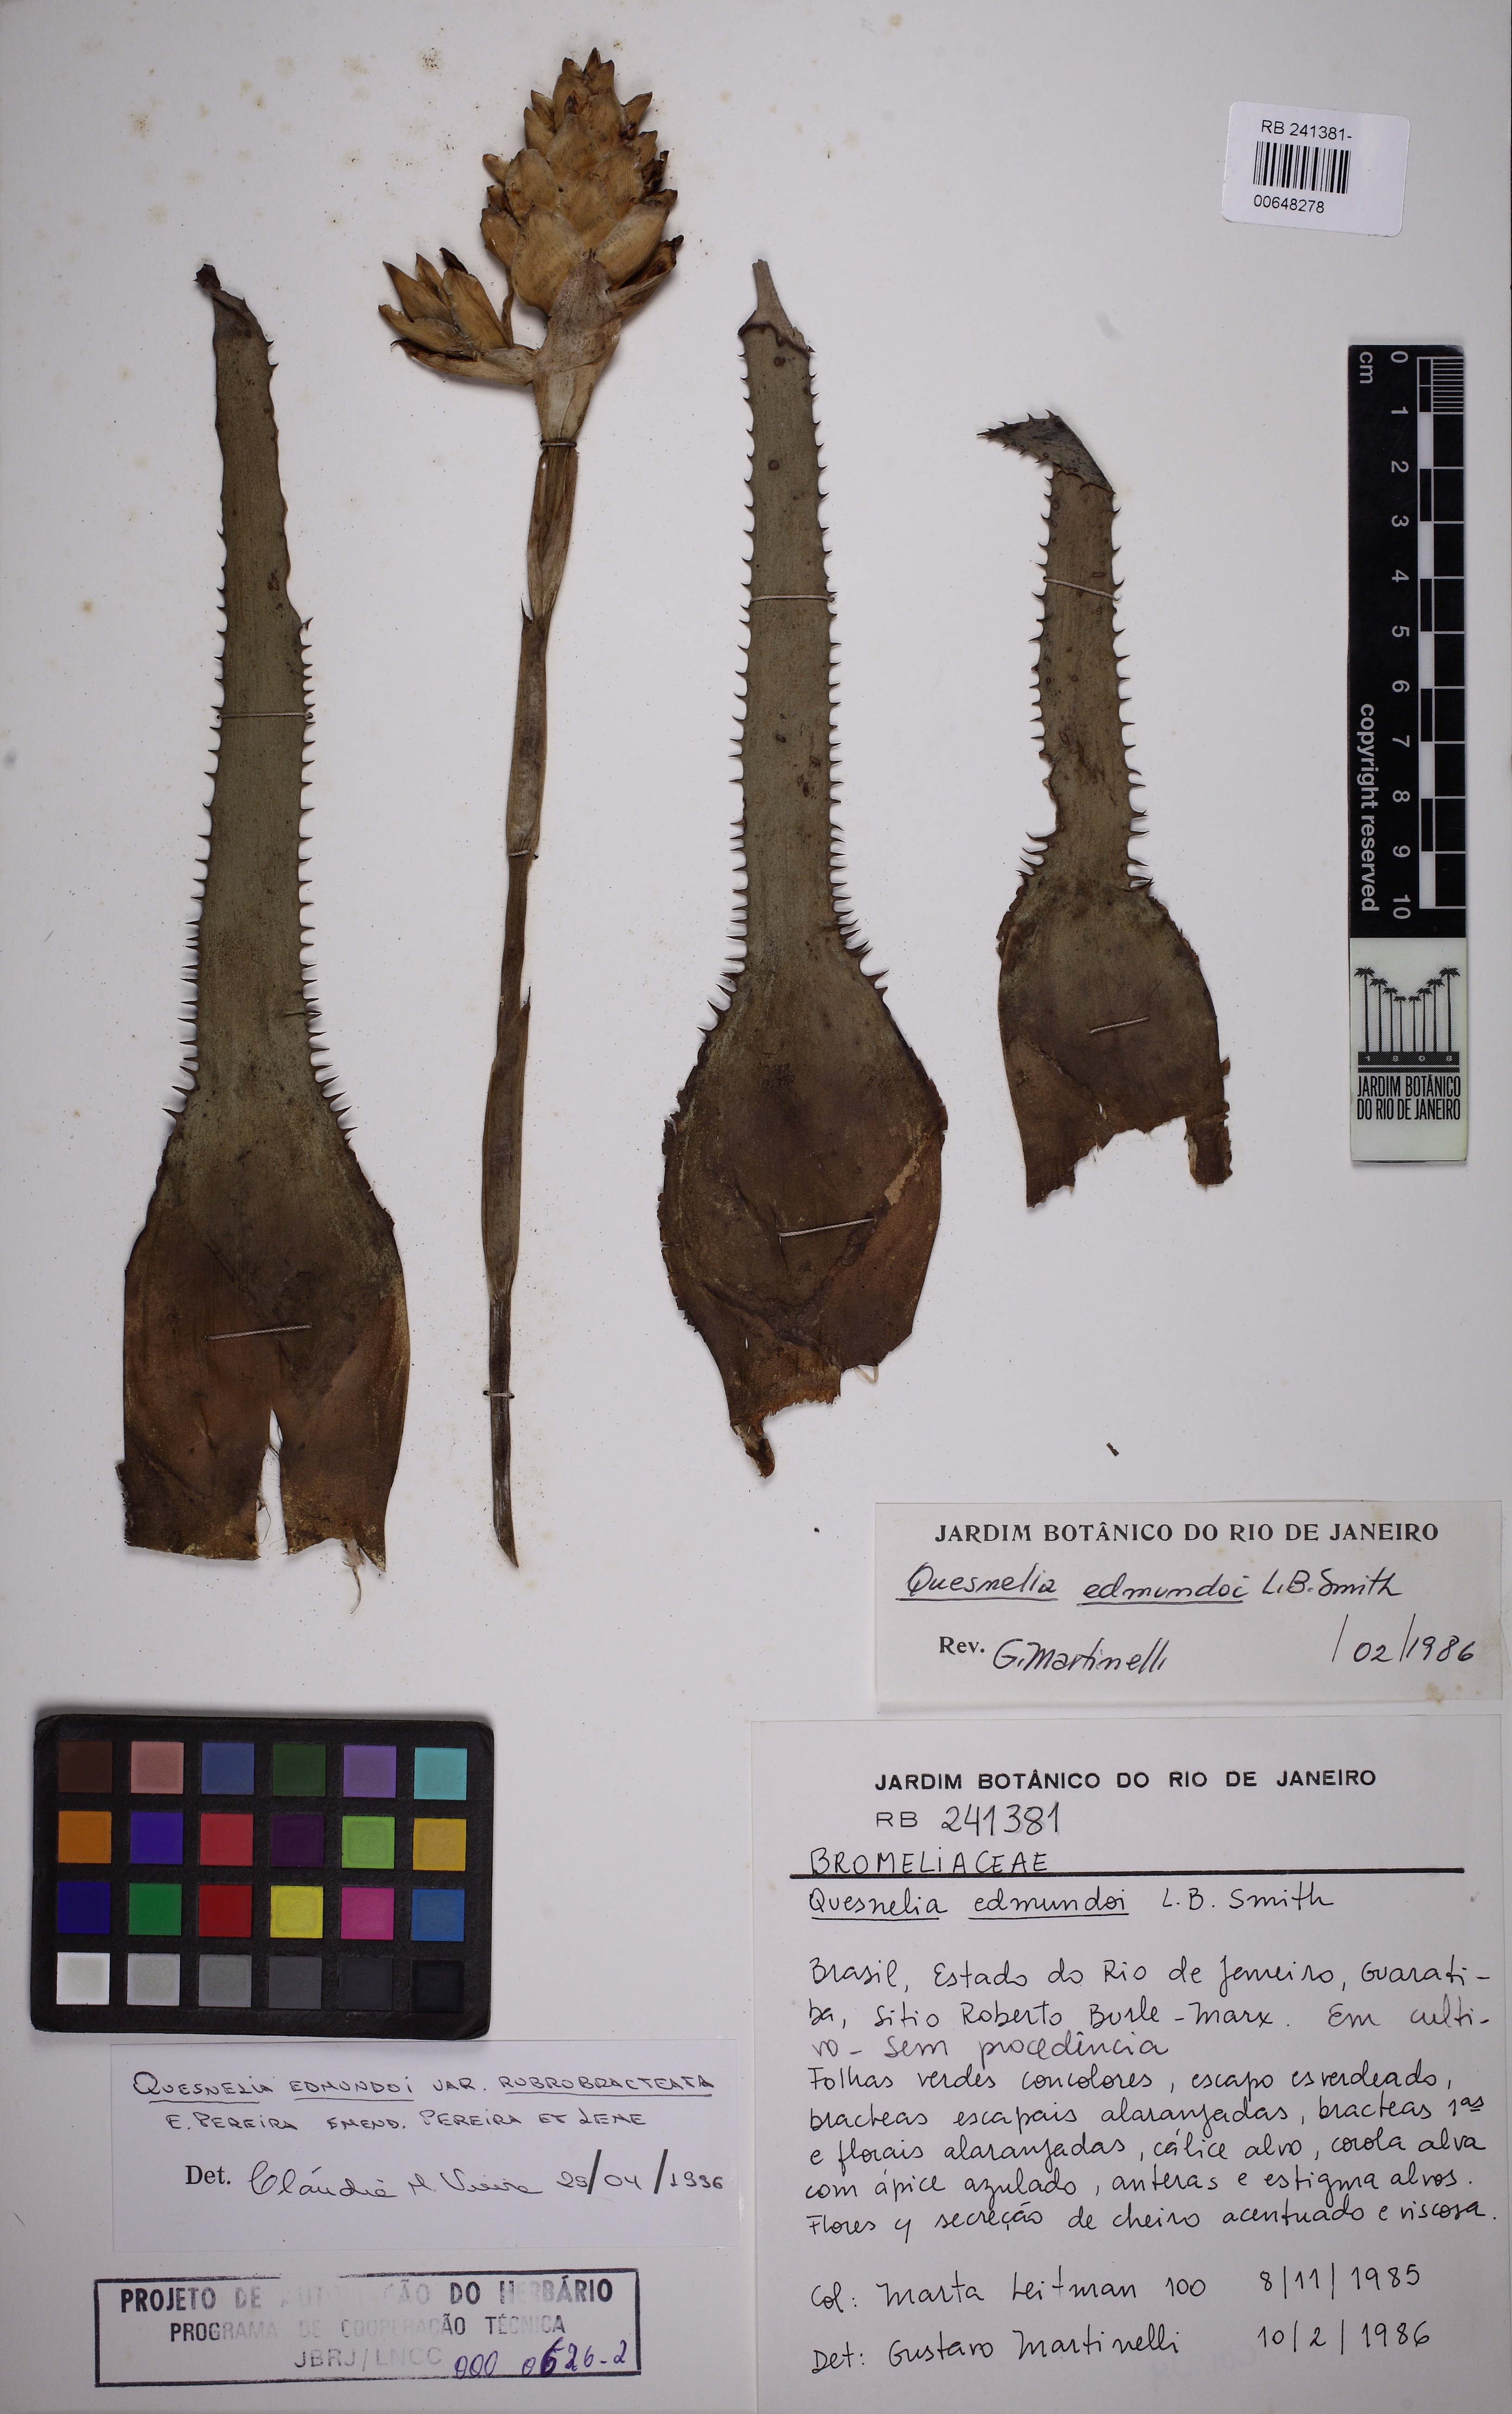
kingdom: Plantae
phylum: Tracheophyta
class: Liliopsida
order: Poales
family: Bromeliaceae
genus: Quesnelia
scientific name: Quesnelia edmundoi
